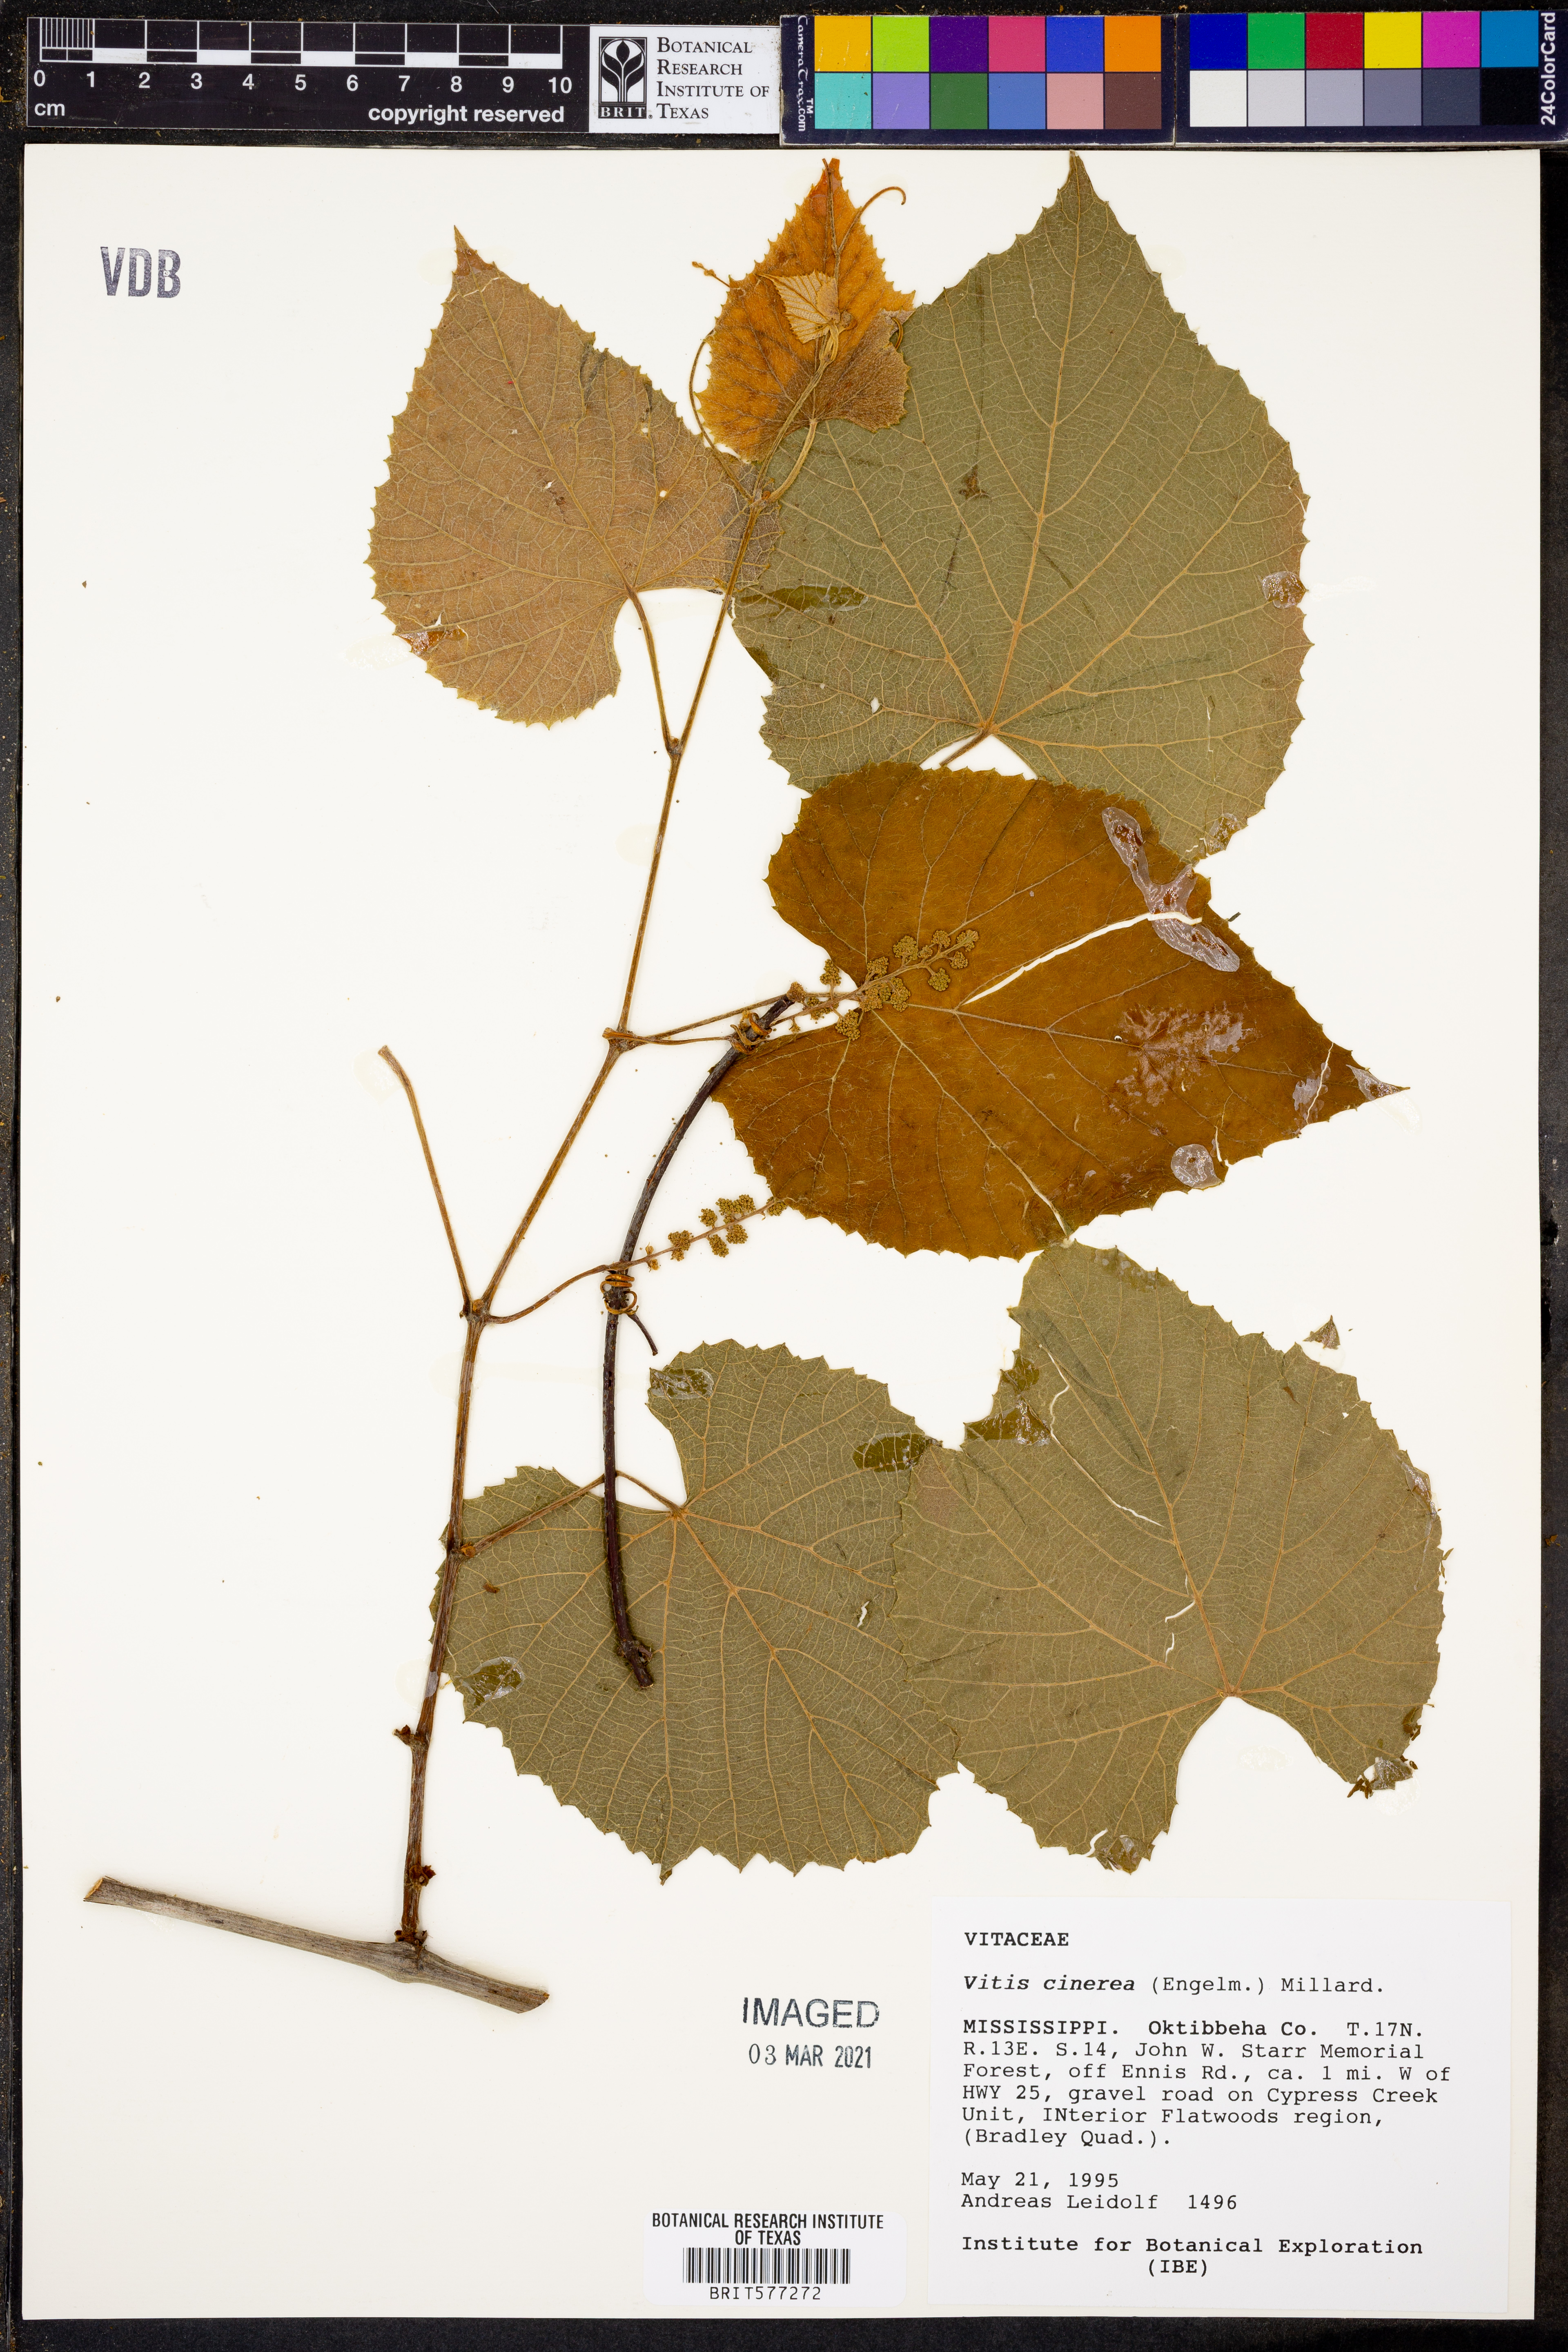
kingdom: Plantae
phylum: Tracheophyta
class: Magnoliopsida
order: Vitales
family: Vitaceae
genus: Vitis
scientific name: Vitis cinerea
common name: Ashy grape
